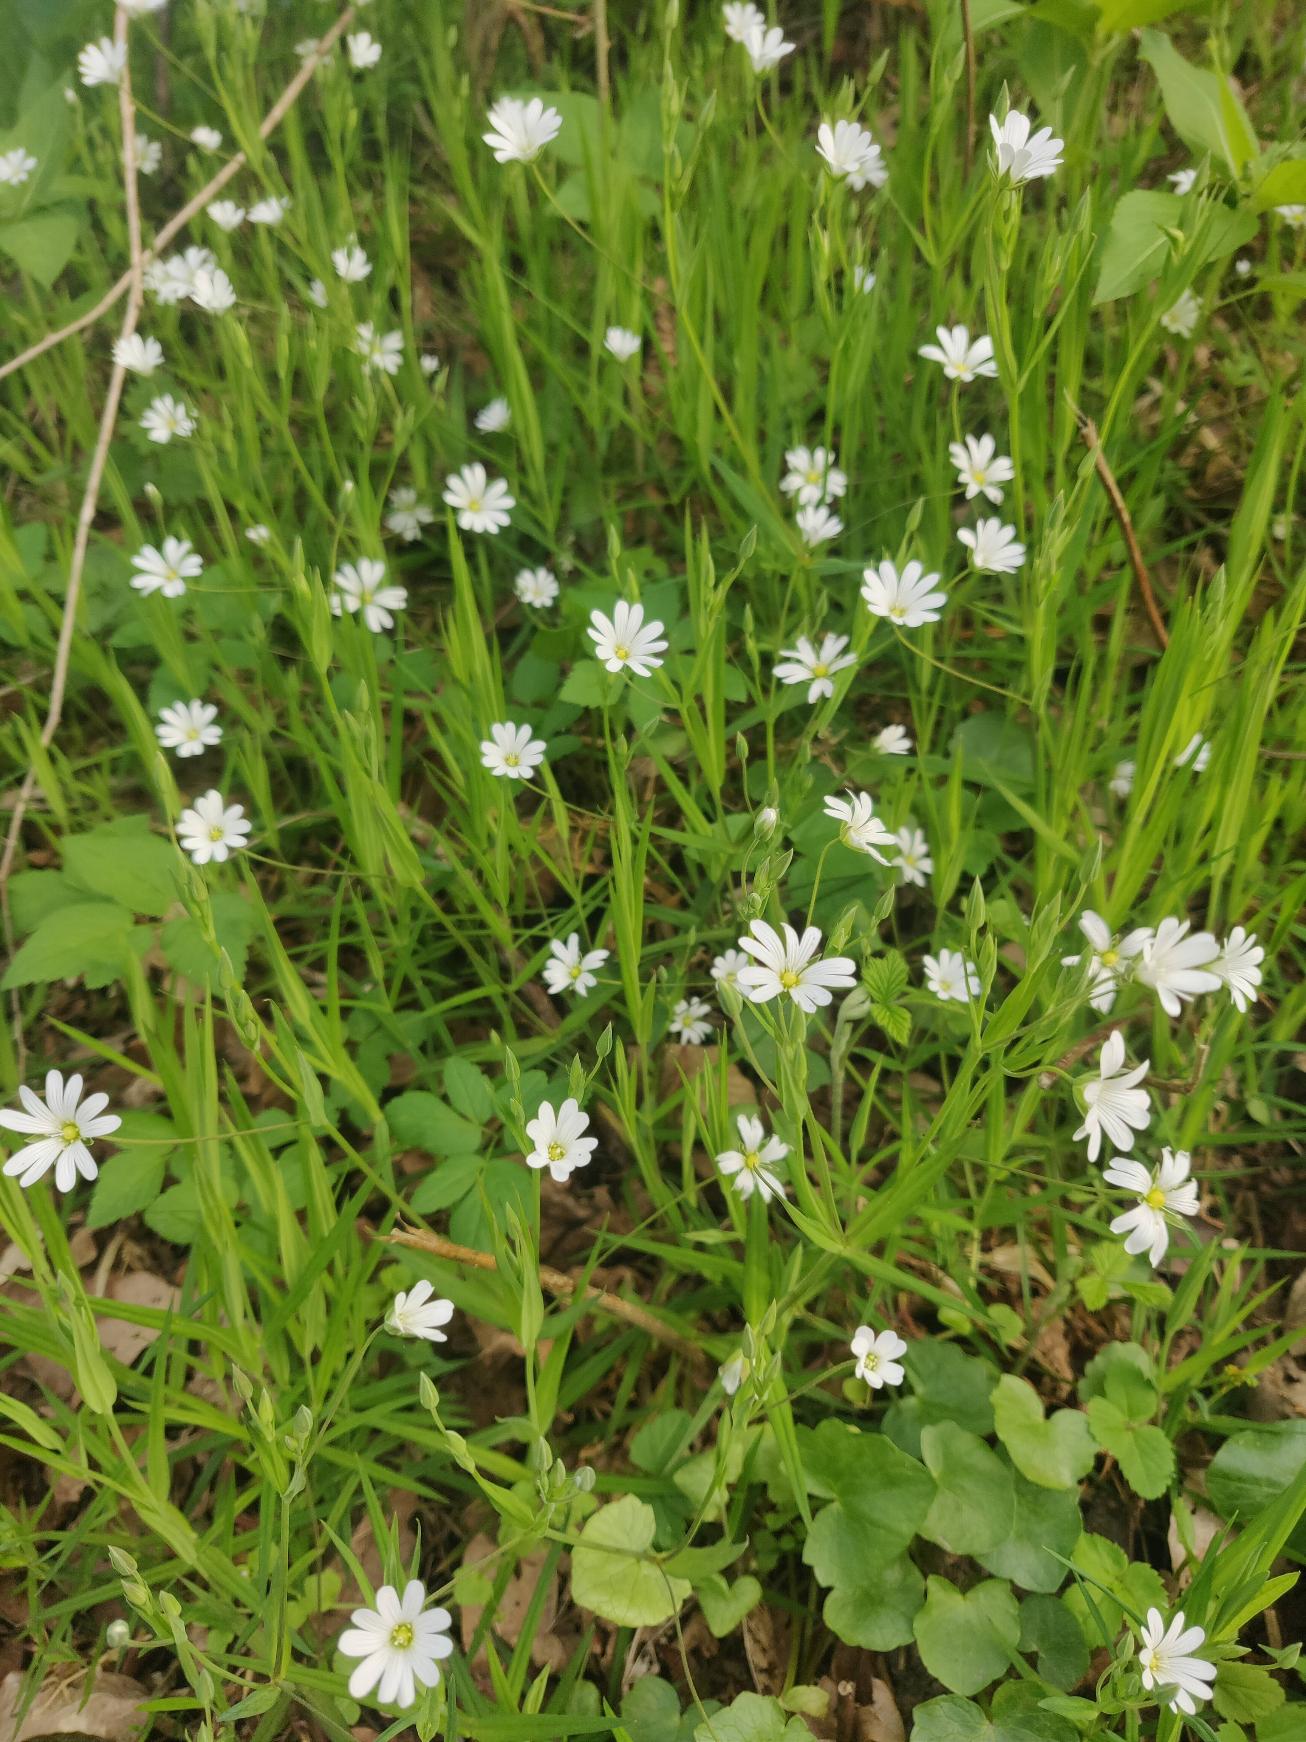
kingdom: Plantae
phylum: Tracheophyta
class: Magnoliopsida
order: Caryophyllales
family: Caryophyllaceae
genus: Rabelera
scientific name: Rabelera holostea
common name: Stor fladstjerne
